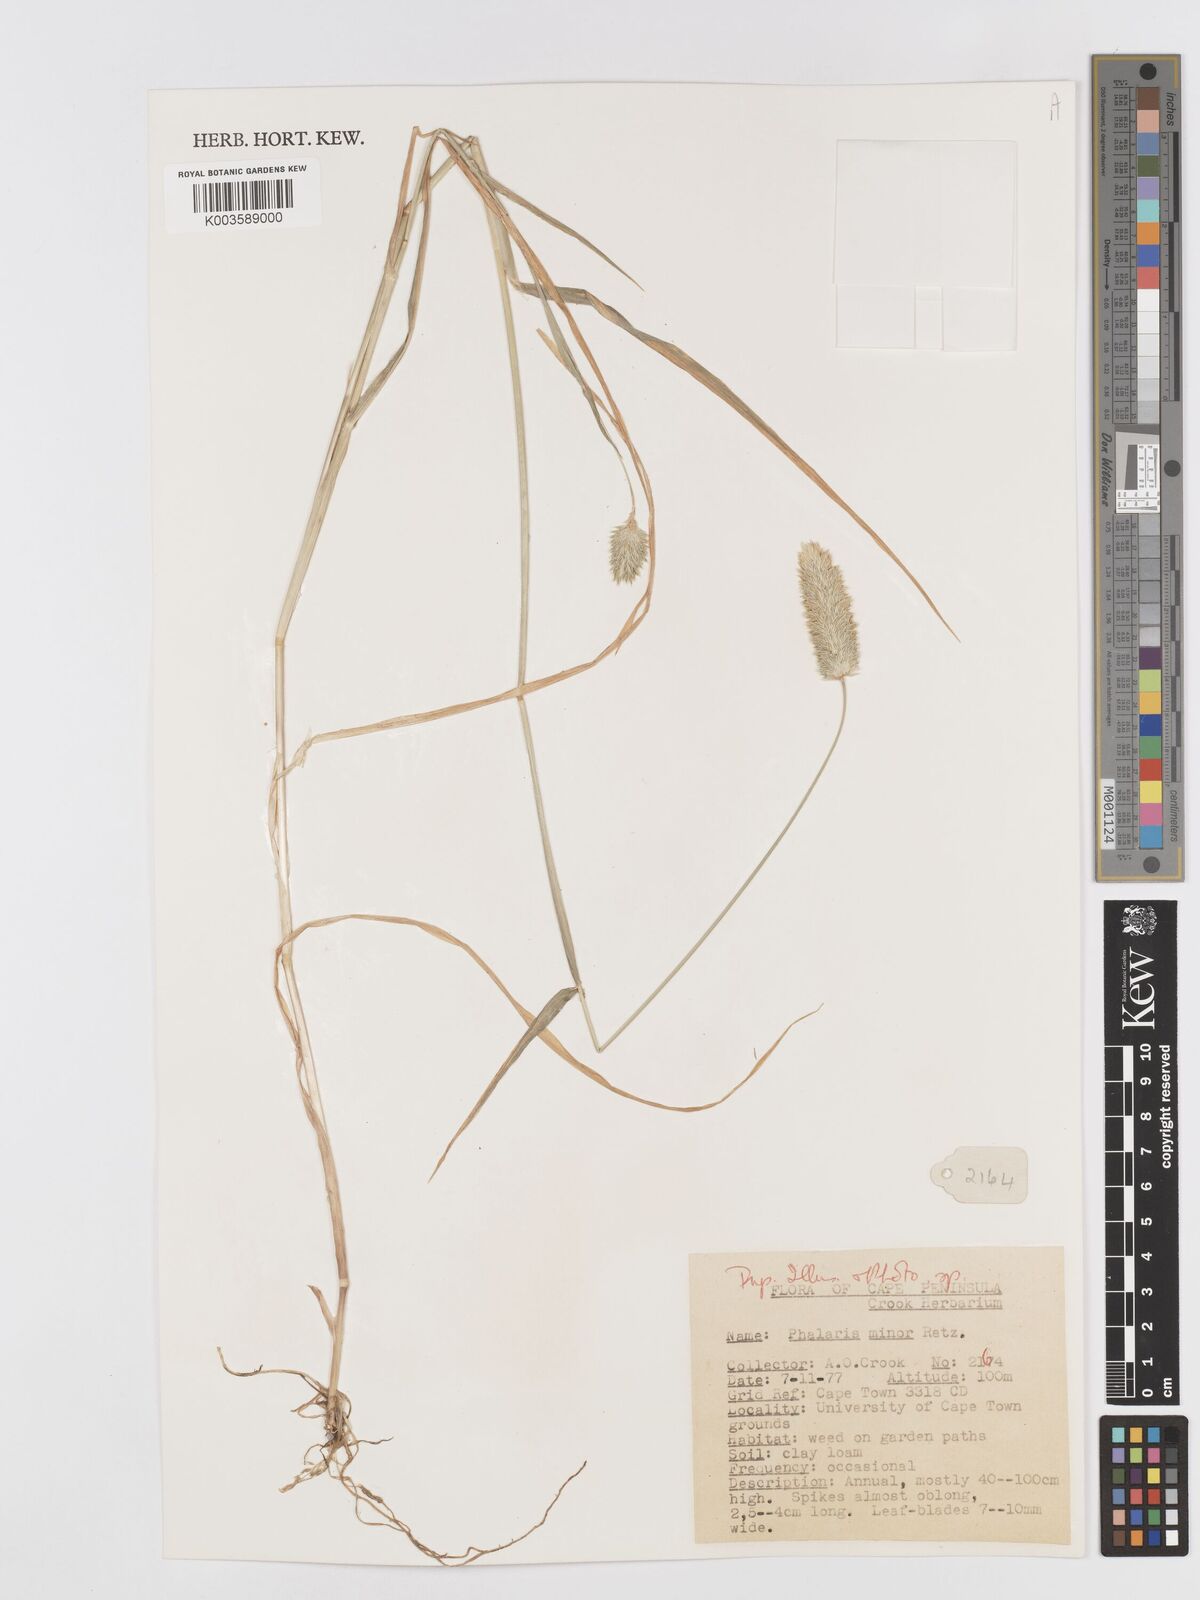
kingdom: Plantae
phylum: Tracheophyta
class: Liliopsida
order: Poales
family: Poaceae
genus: Phalaris
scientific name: Phalaris minor
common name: Littleseed canarygrass
